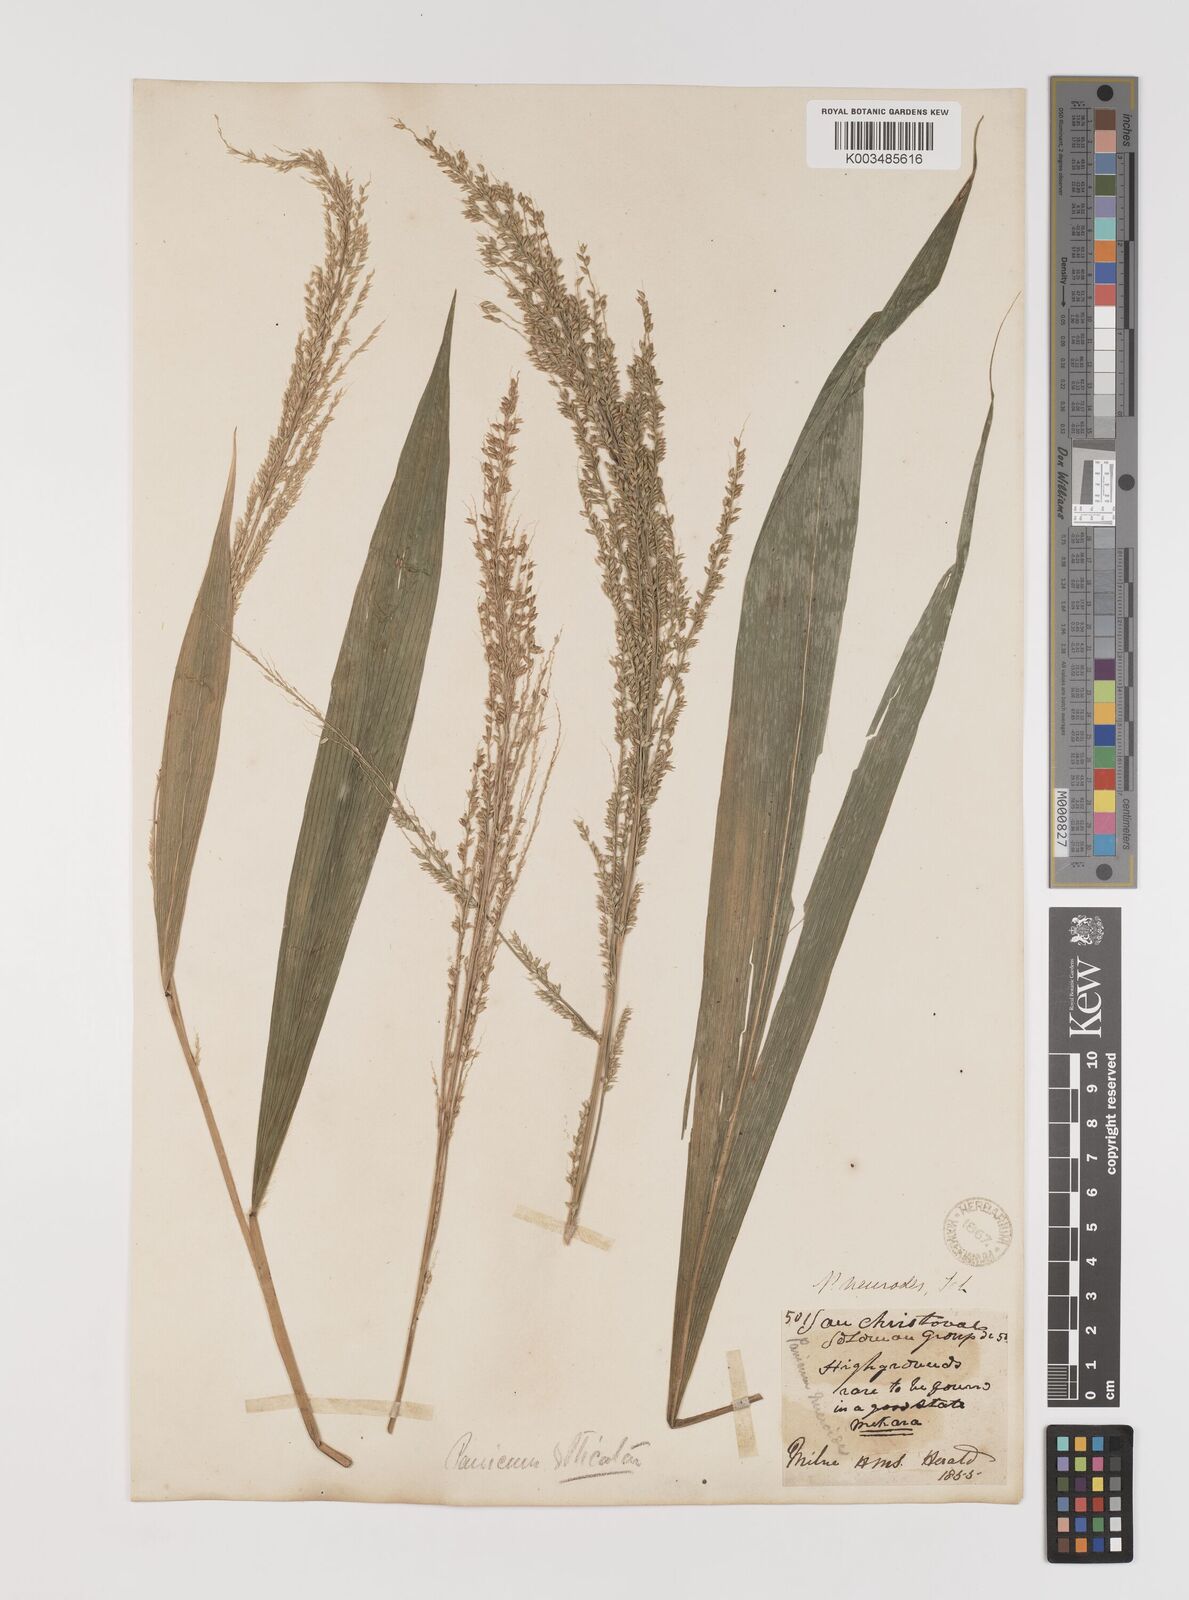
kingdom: Plantae
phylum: Tracheophyta
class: Liliopsida
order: Poales
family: Poaceae
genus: Setaria
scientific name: Setaria palmifolia
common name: Broadleaved bristlegrass
